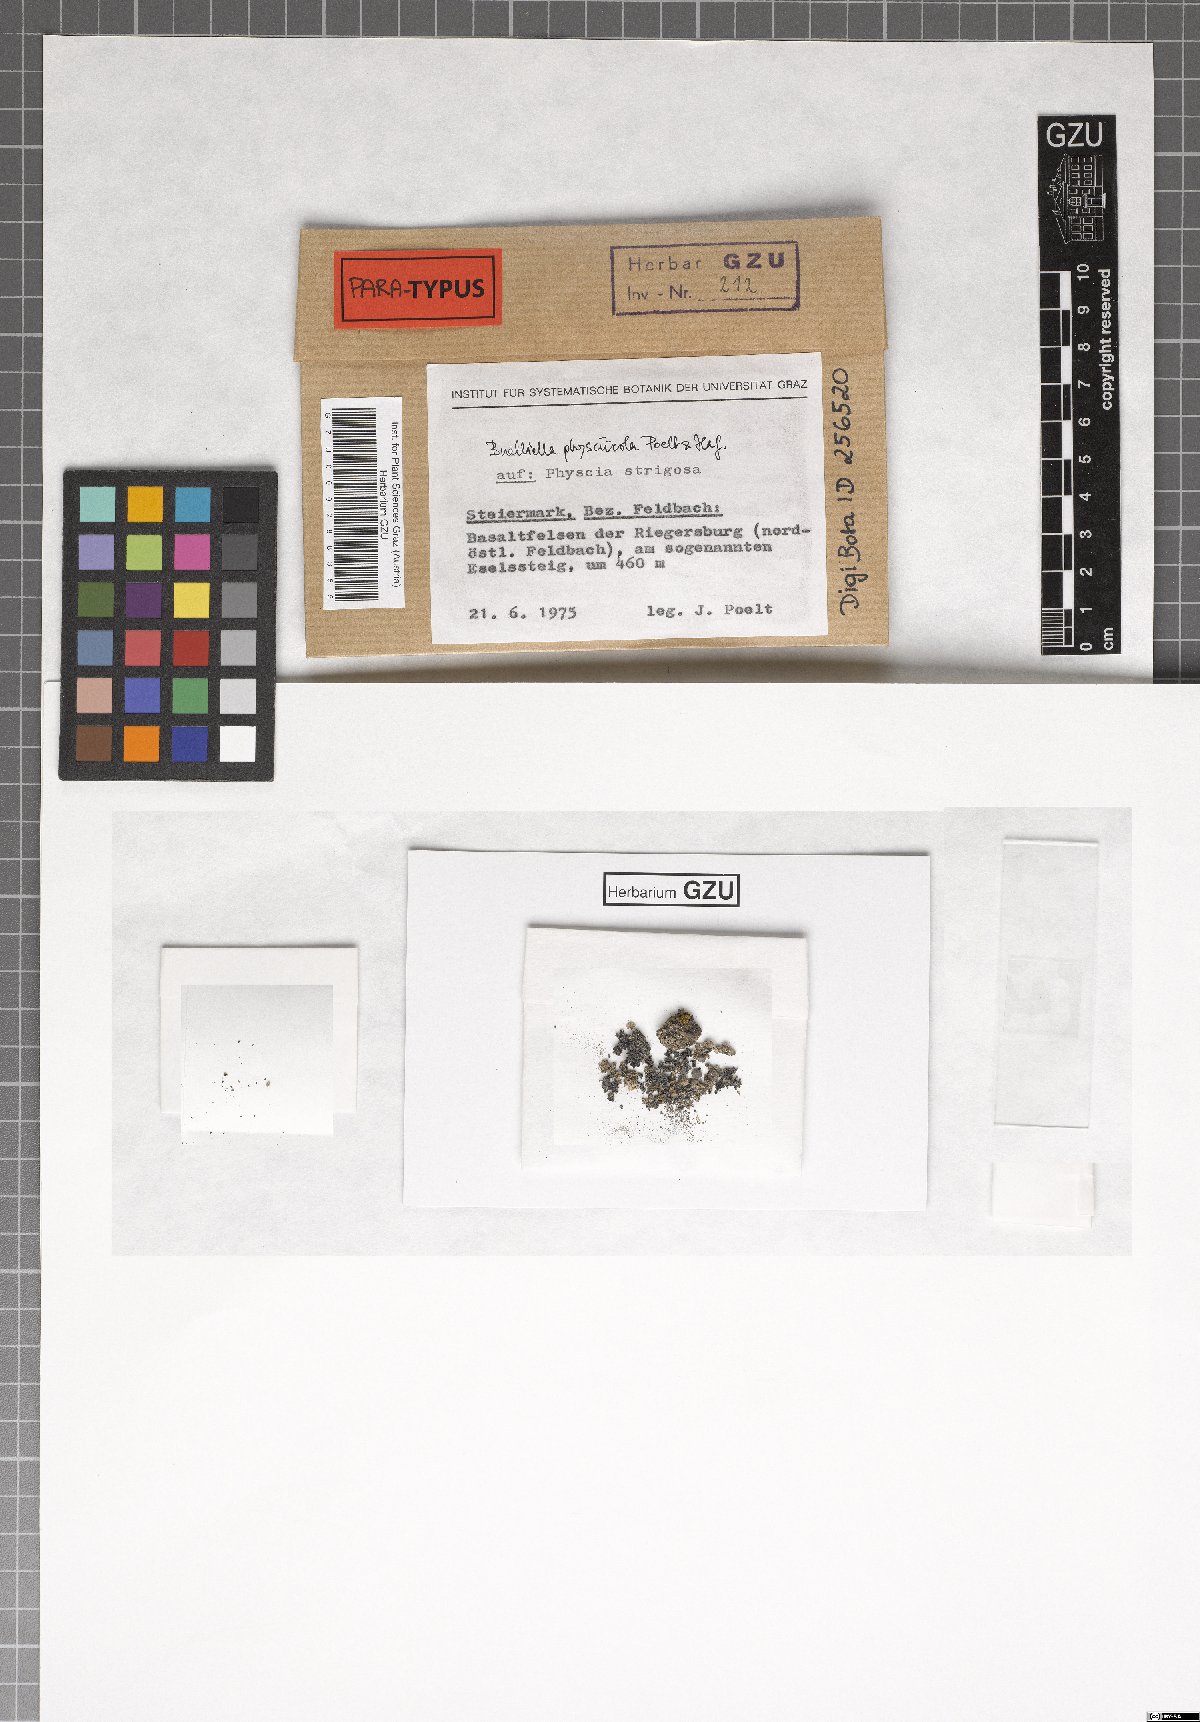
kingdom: Fungi
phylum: Ascomycota
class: Dothideomycetes
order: Dothideales
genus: Buelliella
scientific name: Buelliella physciicola
